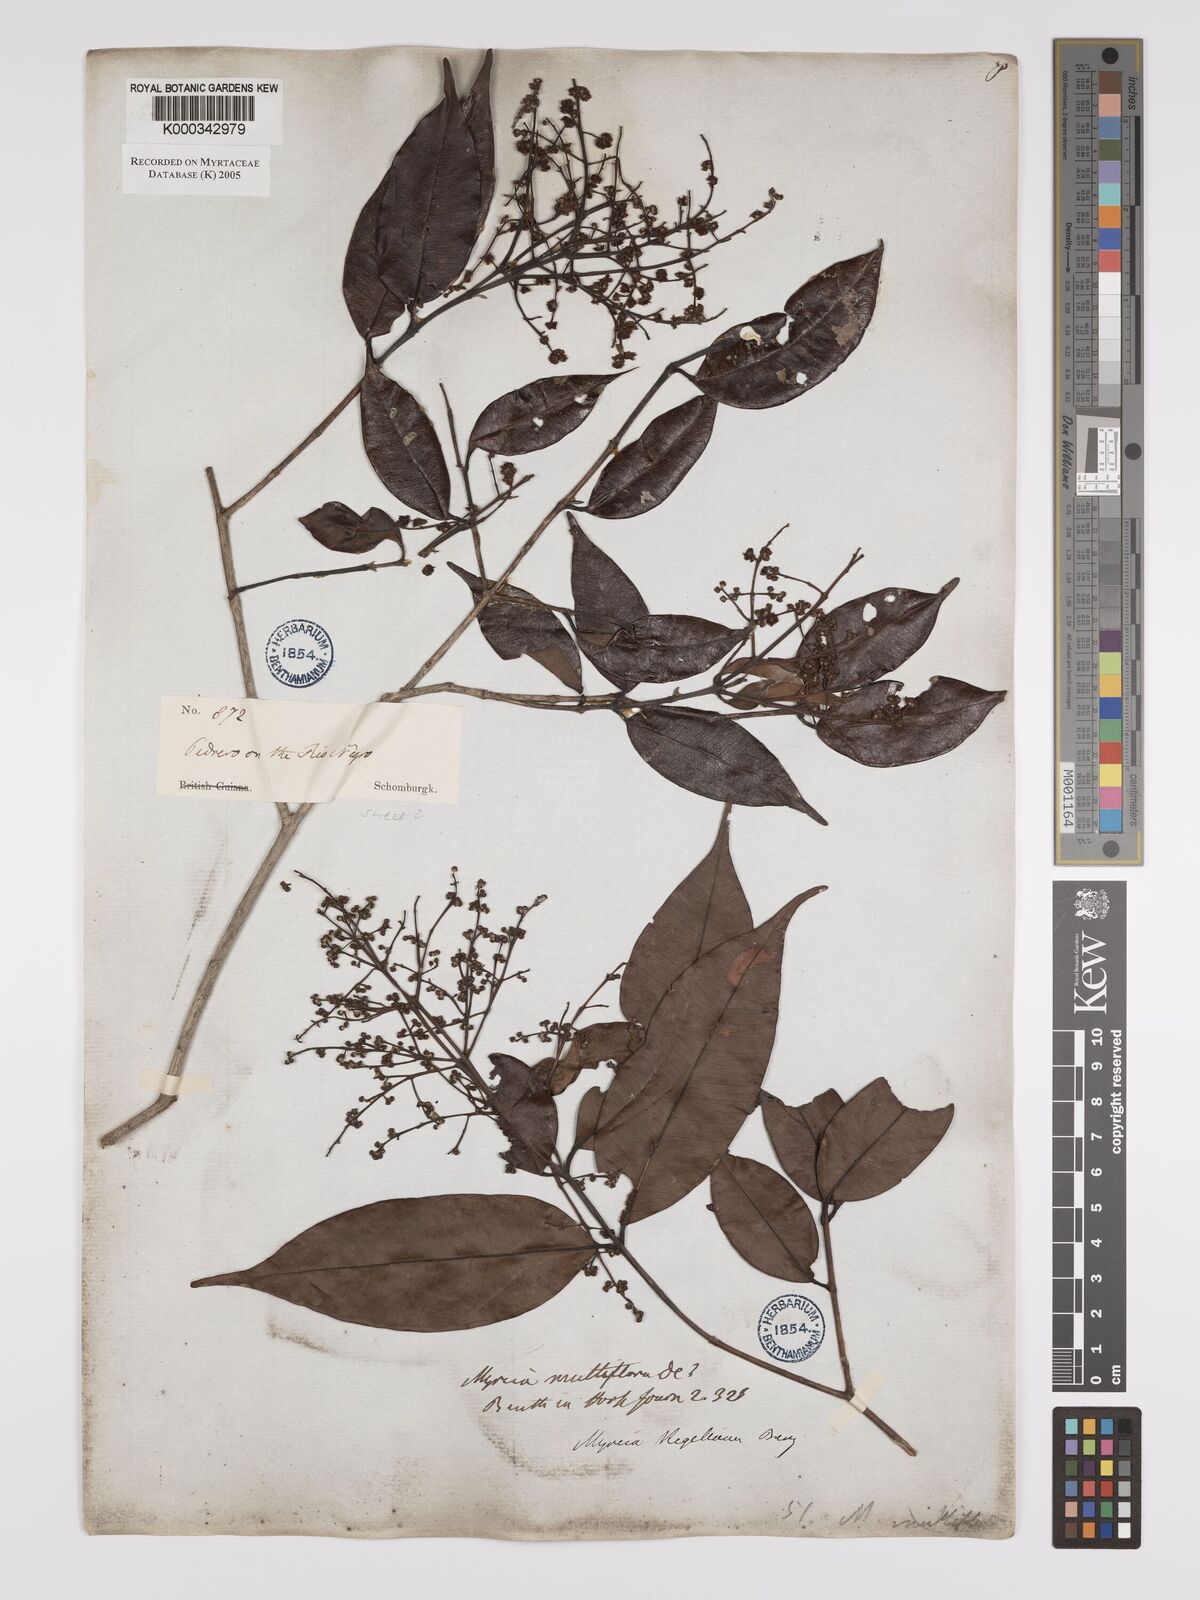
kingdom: Plantae
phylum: Tracheophyta
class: Magnoliopsida
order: Myrtales
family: Myrtaceae
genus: Myrcia
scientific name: Myrcia splendens
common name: Surinam cherry
